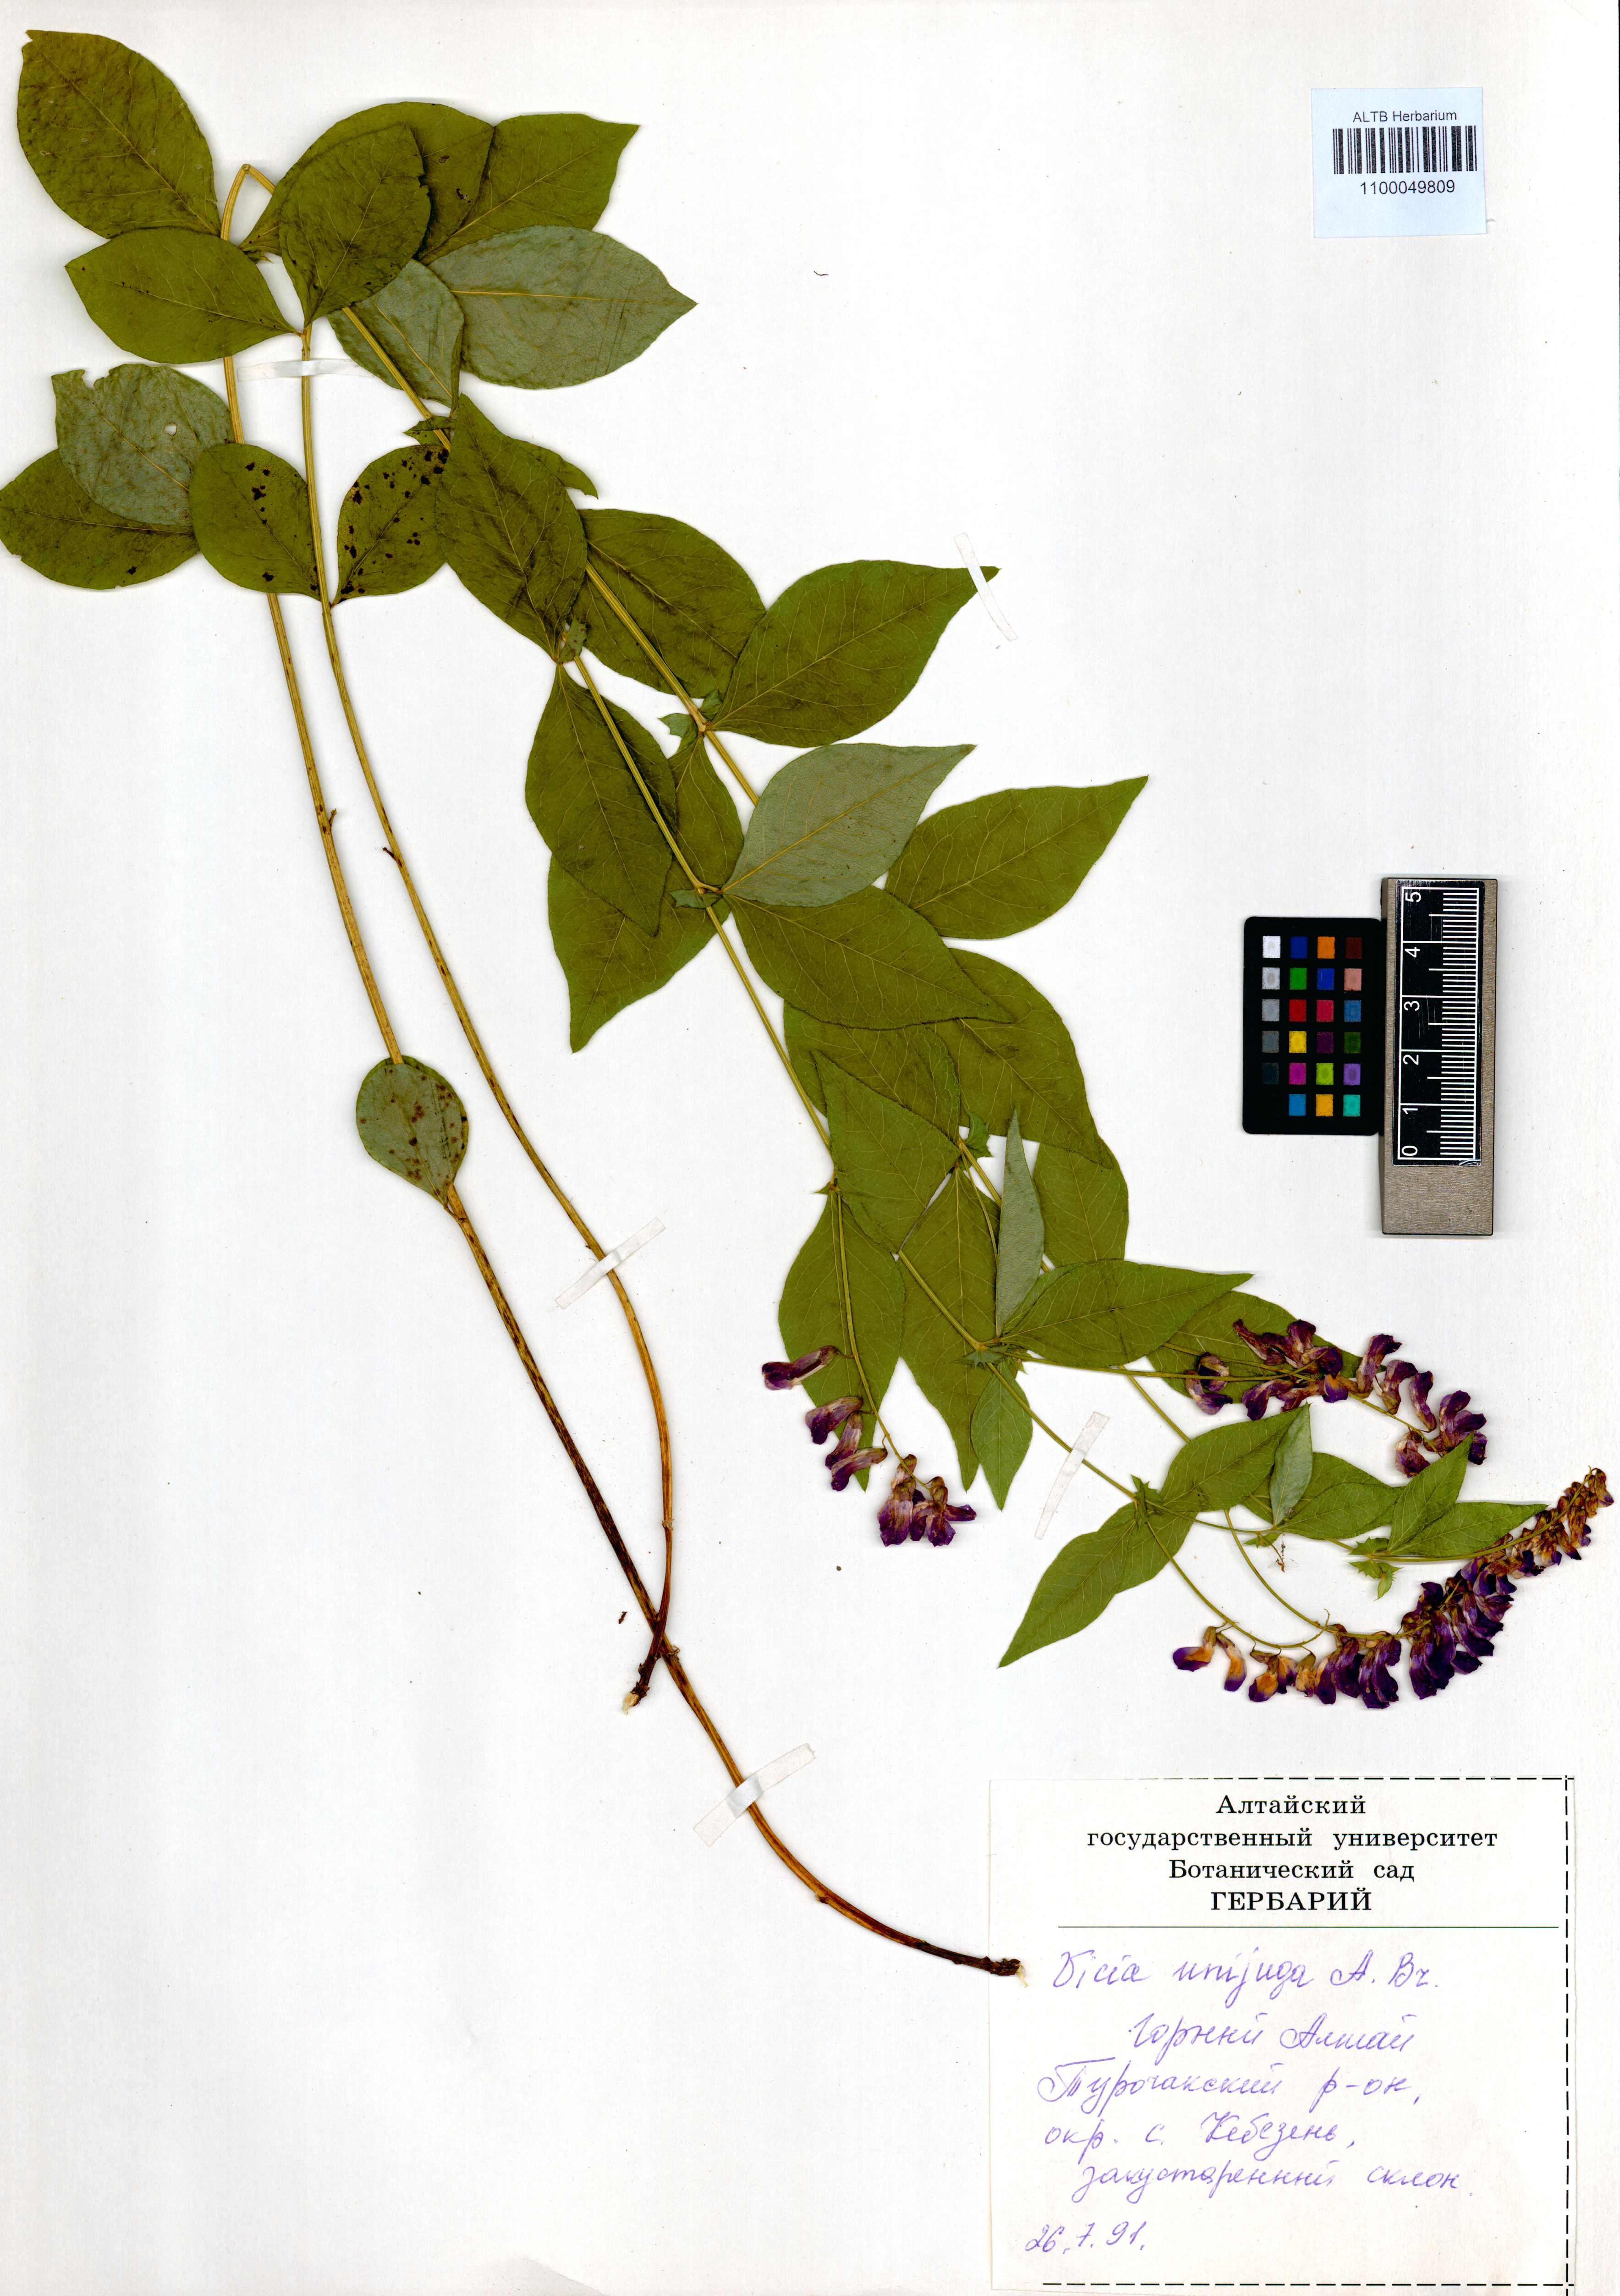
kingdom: Plantae
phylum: Tracheophyta
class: Magnoliopsida
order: Fabales
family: Fabaceae
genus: Vicia
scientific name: Vicia unijuga
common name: Two-leaf vetch
